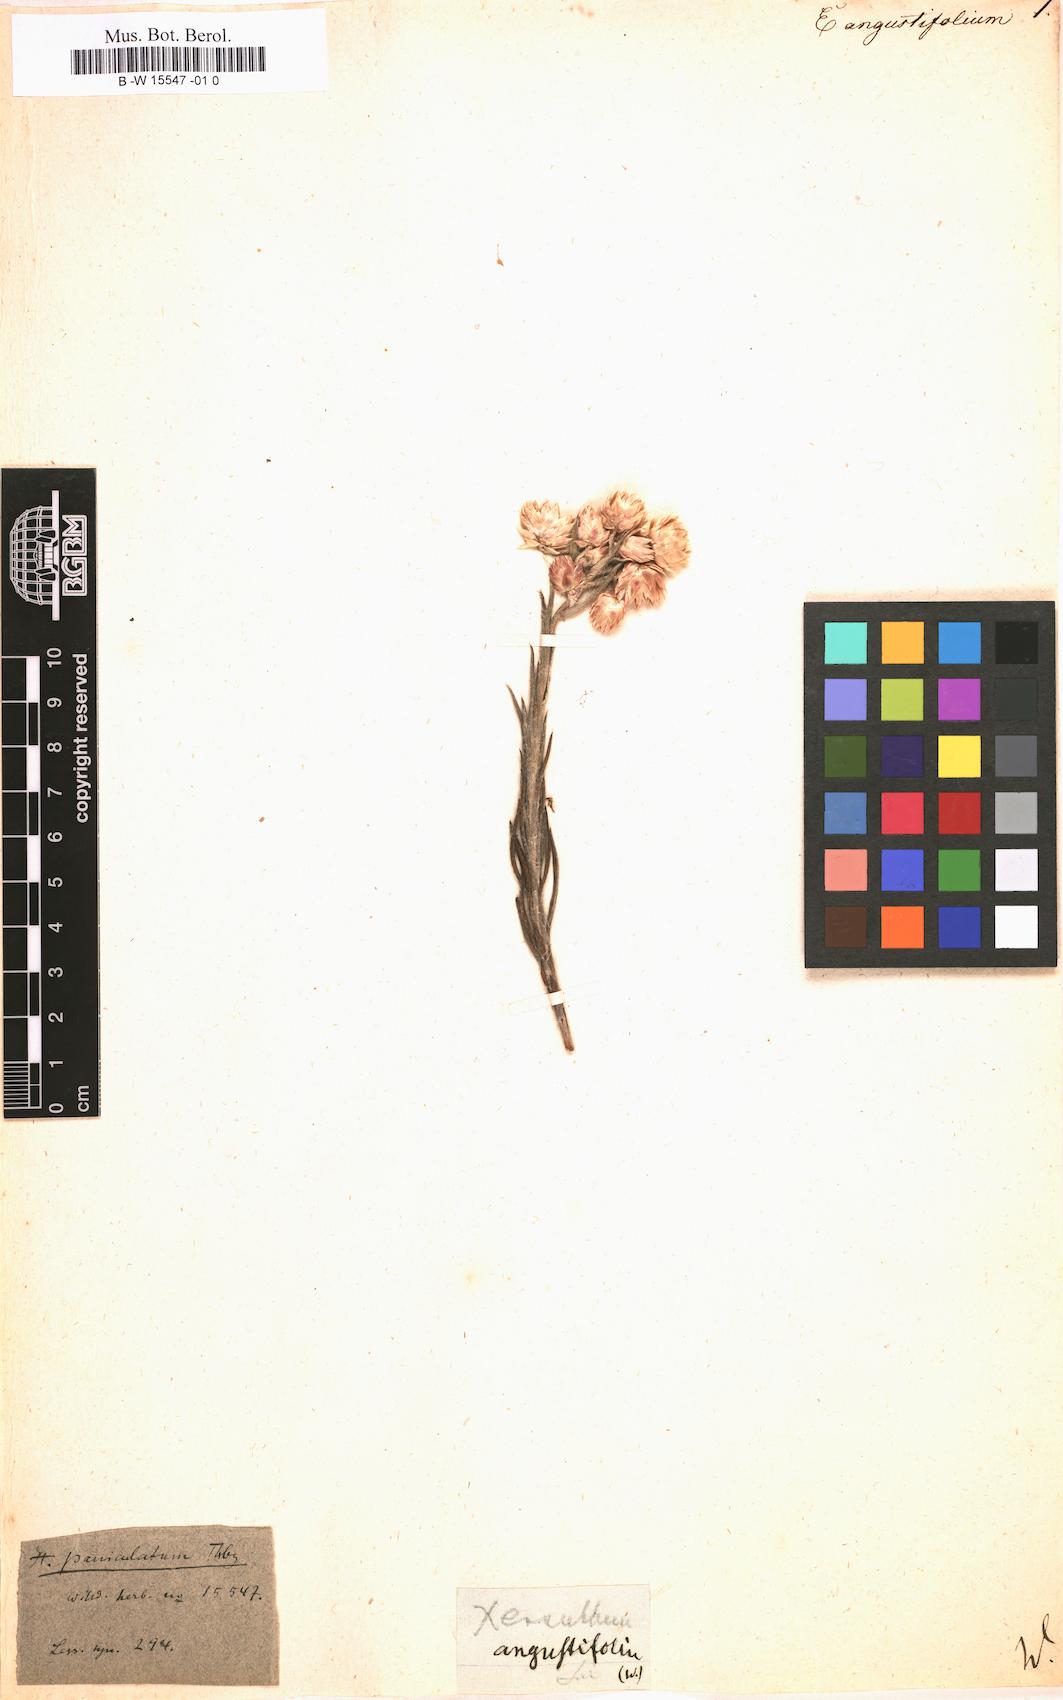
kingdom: Plantae
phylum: Tracheophyta
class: Magnoliopsida
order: Asterales
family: Asteraceae
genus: Helichrysum
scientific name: Helichrysum
